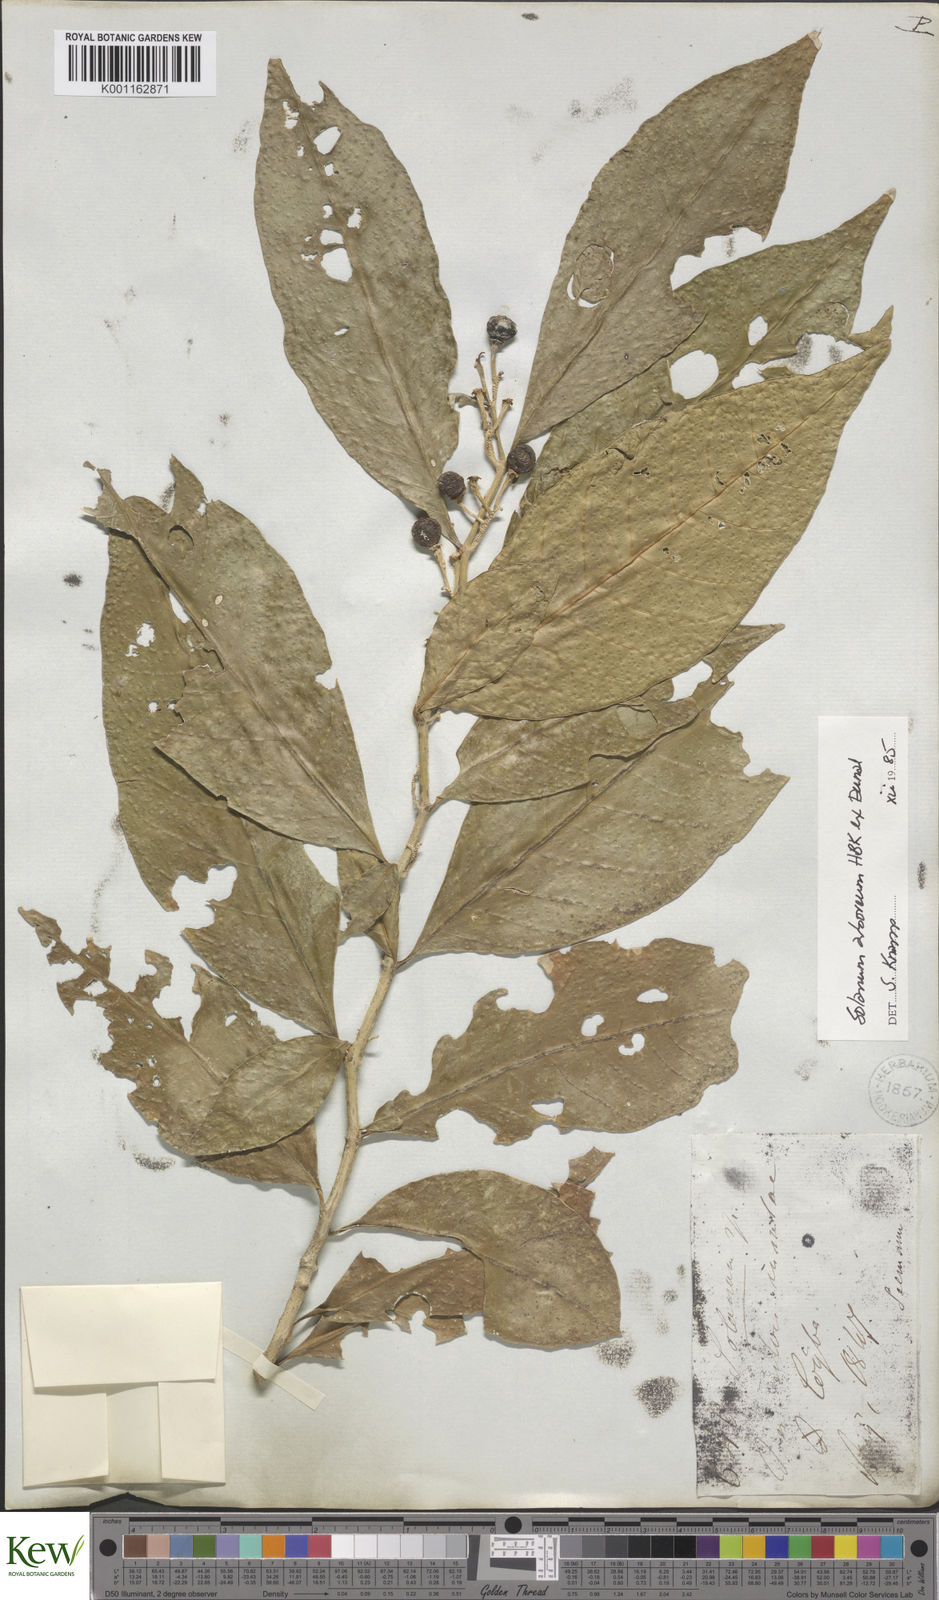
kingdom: Plantae
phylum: Tracheophyta
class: Magnoliopsida
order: Solanales
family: Solanaceae
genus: Solanum
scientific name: Solanum arboreum
